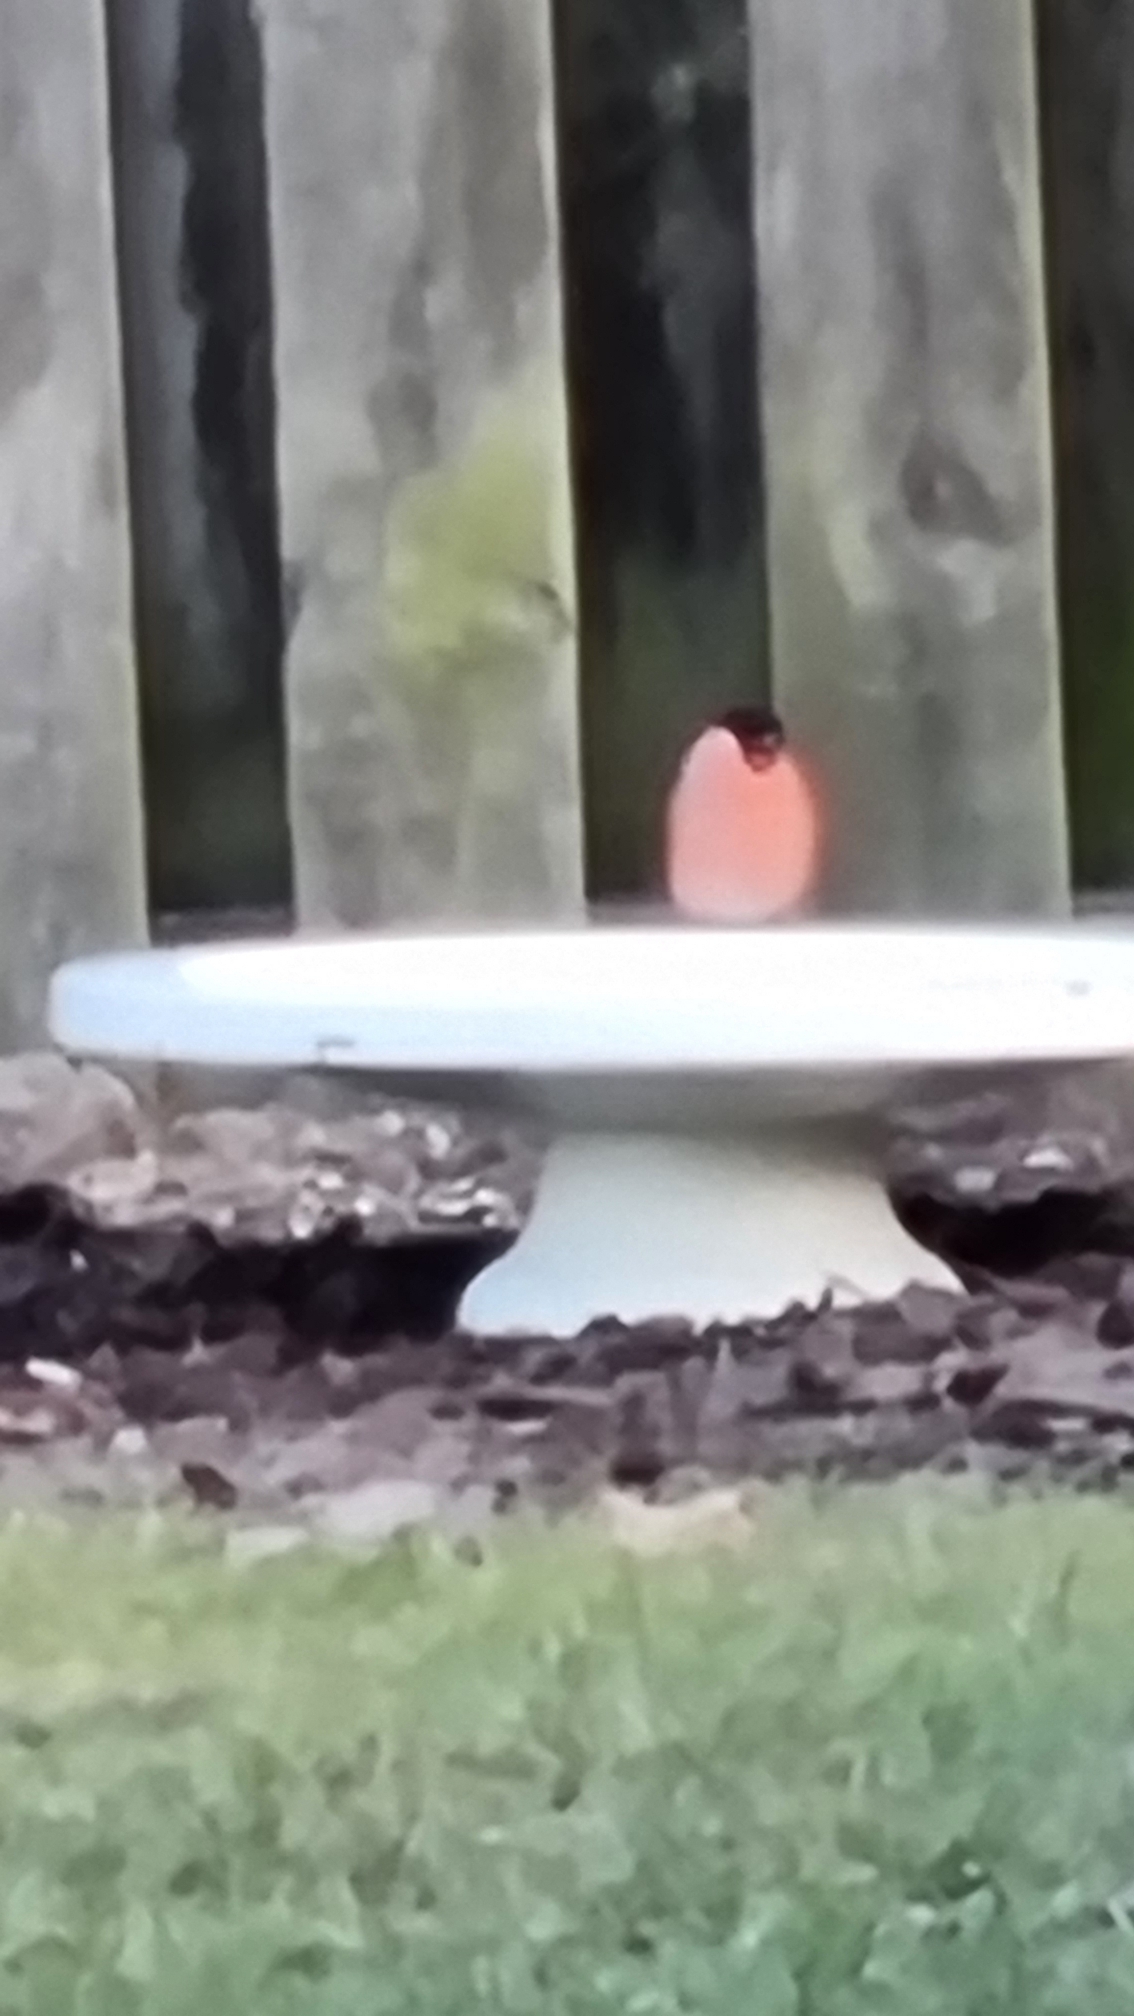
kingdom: Animalia
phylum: Chordata
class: Aves
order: Passeriformes
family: Fringillidae
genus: Pyrrhula
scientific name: Pyrrhula pyrrhula
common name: Dompap
